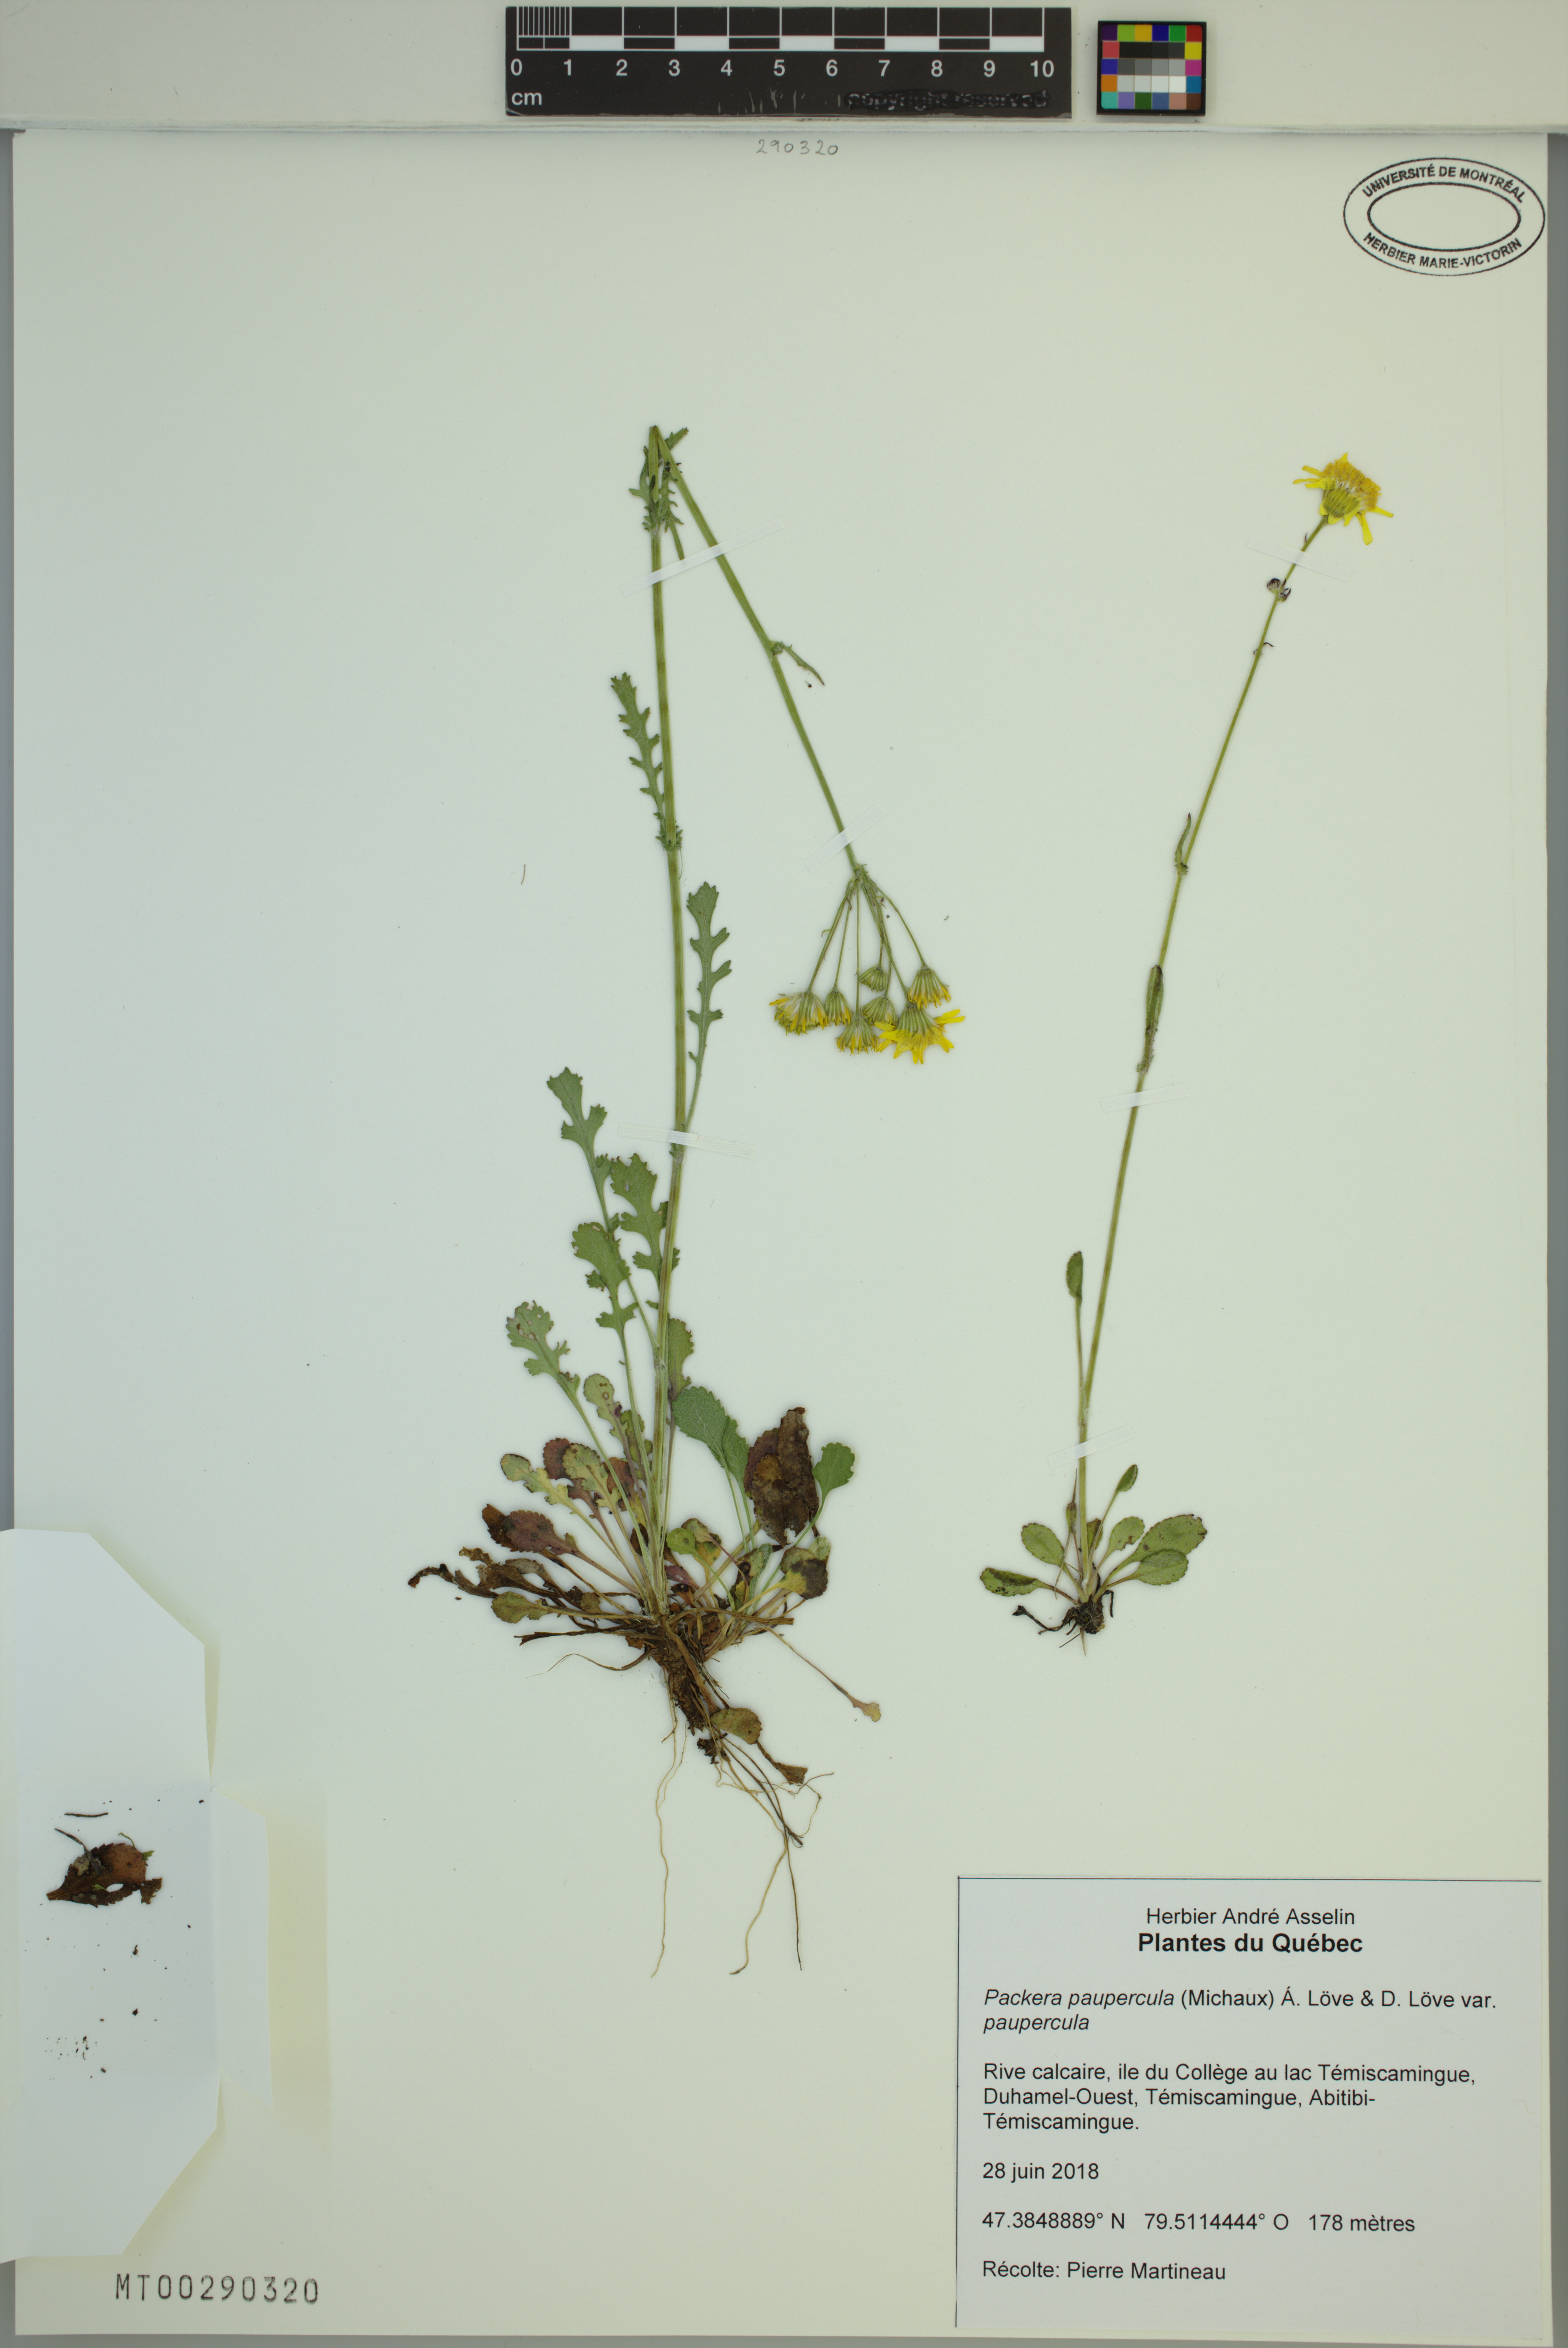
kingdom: Plantae
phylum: Tracheophyta
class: Magnoliopsida
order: Asterales
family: Asteraceae
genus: Packera
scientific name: Packera paupercula
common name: Balsam groundsel
